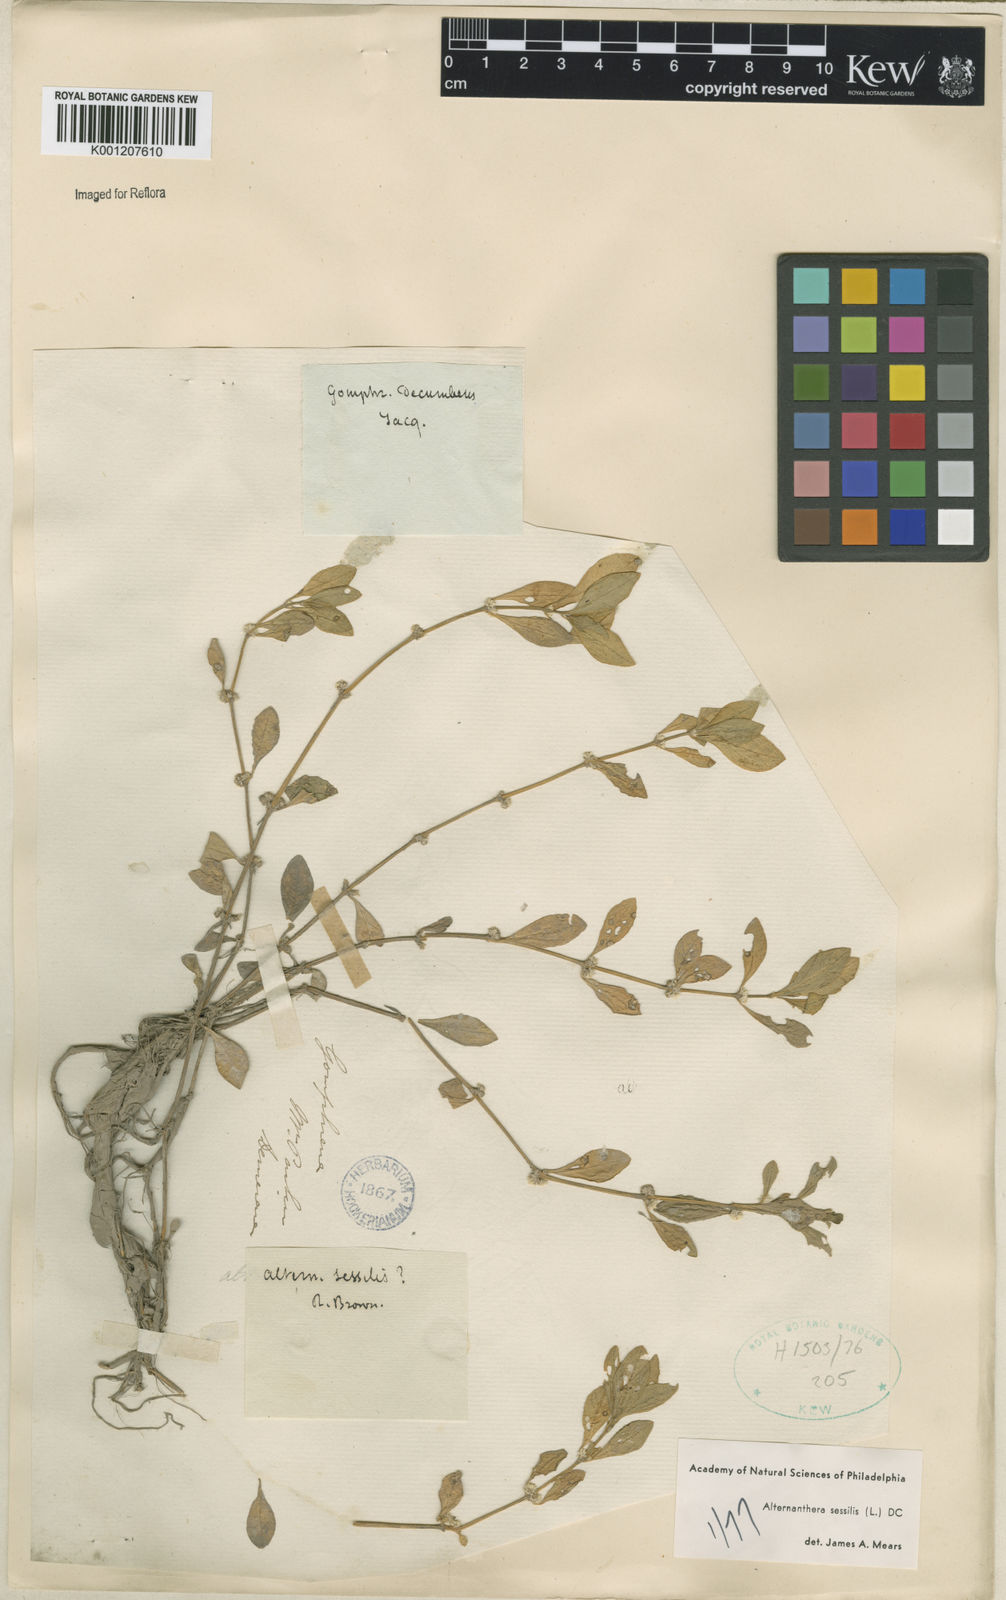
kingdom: Plantae
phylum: Tracheophyta
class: Magnoliopsida
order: Caryophyllales
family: Amaranthaceae
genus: Alternanthera
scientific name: Alternanthera
